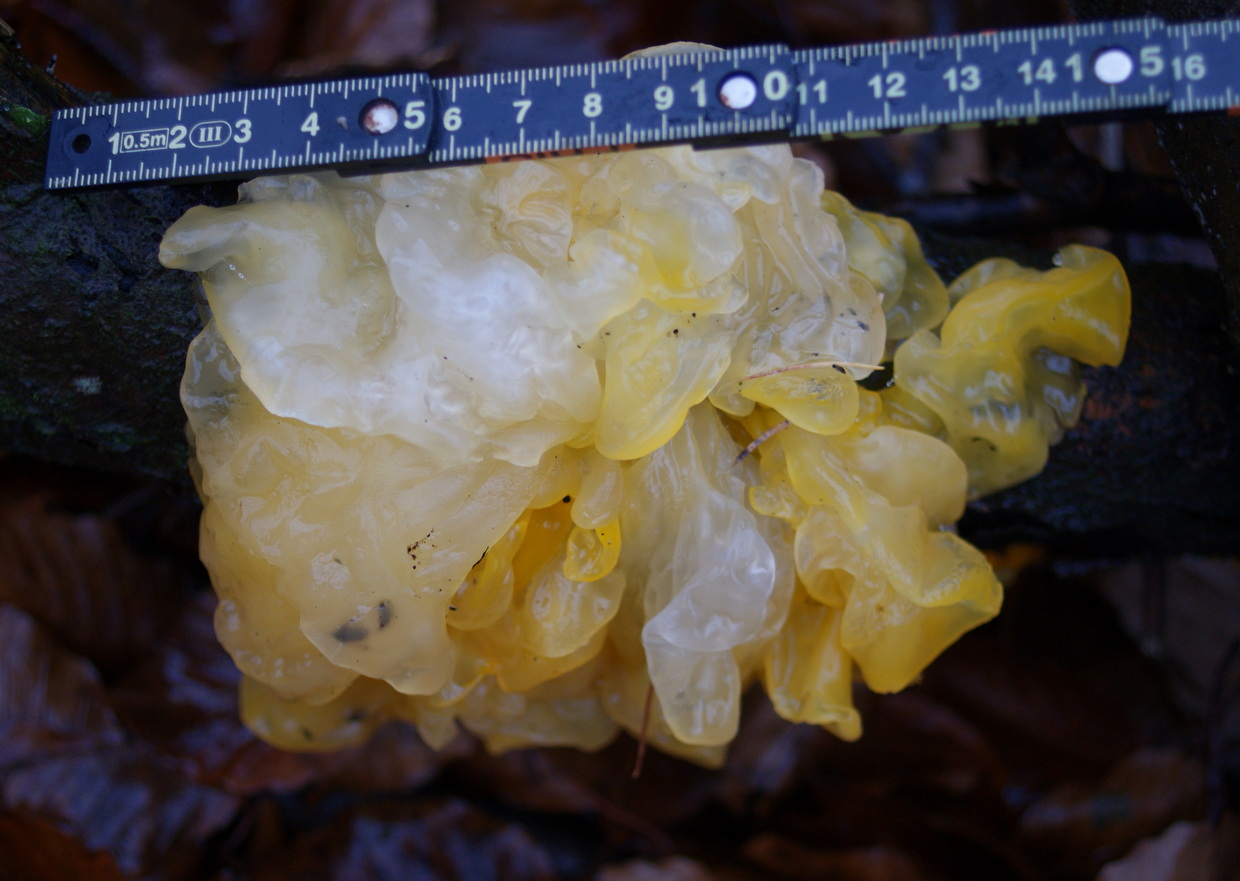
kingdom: Fungi
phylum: Basidiomycota
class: Tremellomycetes
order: Tremellales
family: Tremellaceae
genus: Tremella
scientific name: Tremella mesenterica
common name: gul bævresvamp
